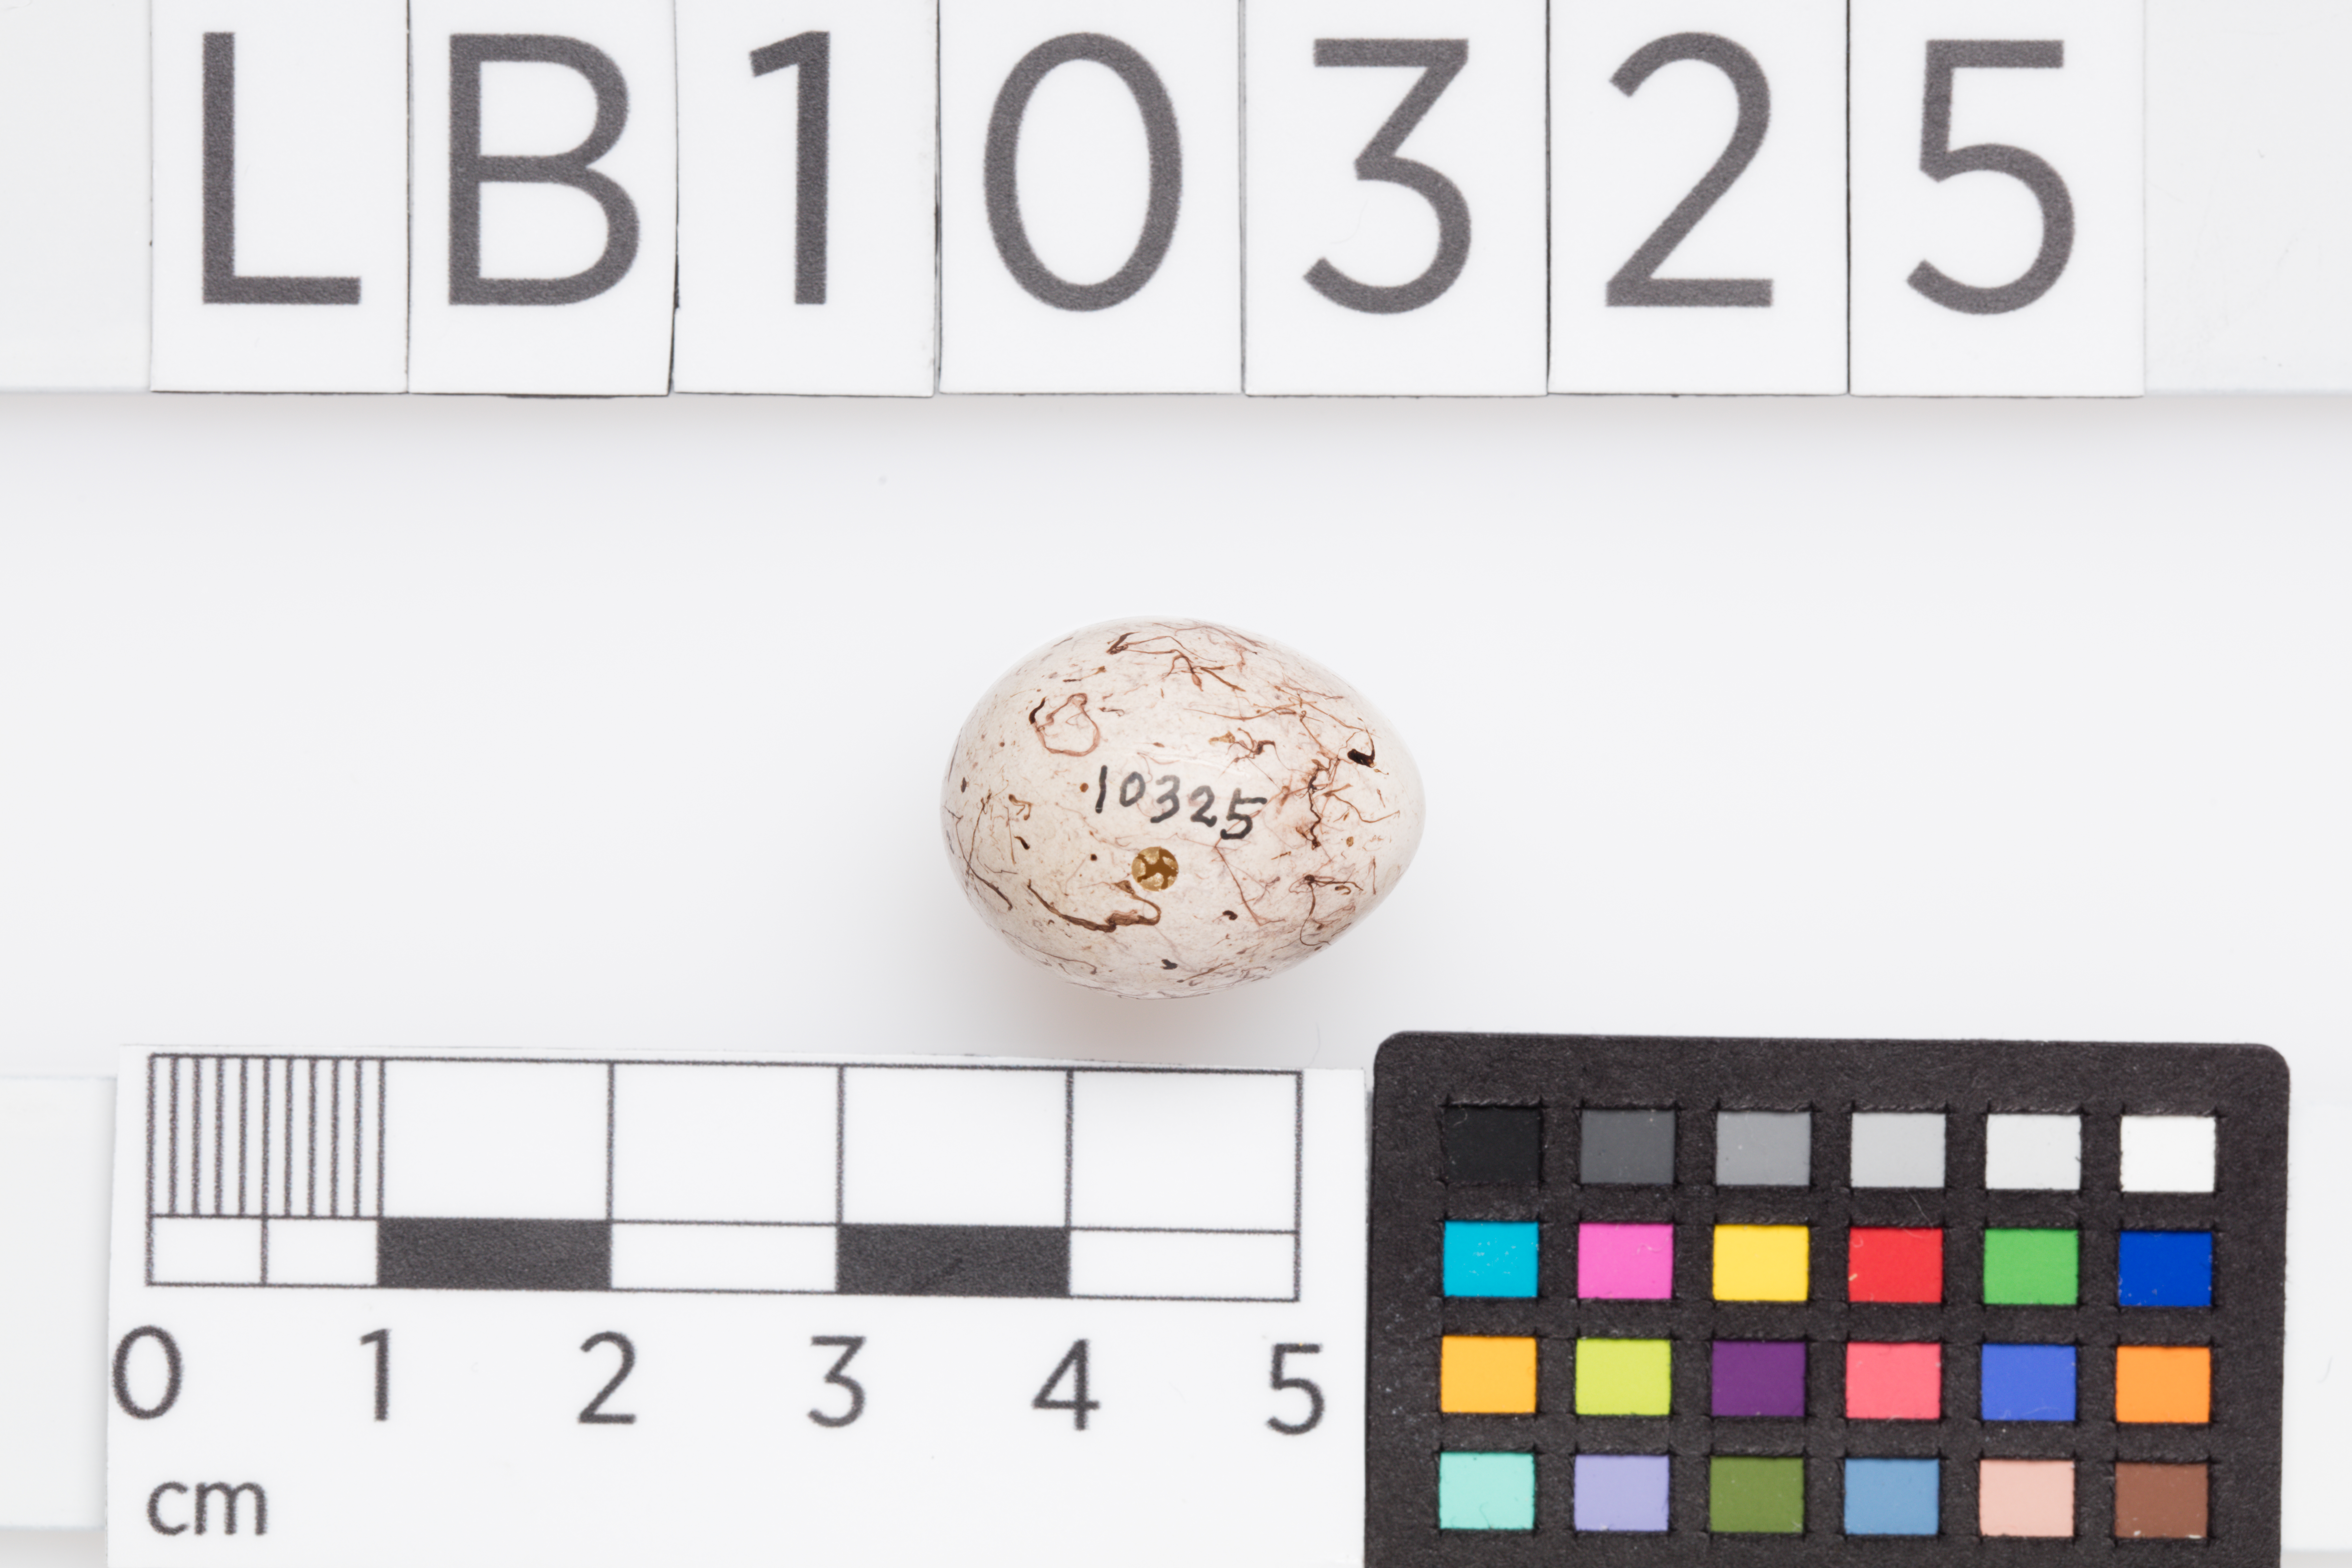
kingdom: Animalia
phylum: Chordata
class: Aves
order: Passeriformes
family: Emberizidae
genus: Emberiza
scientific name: Emberiza citrinella
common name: Yellowhammer
